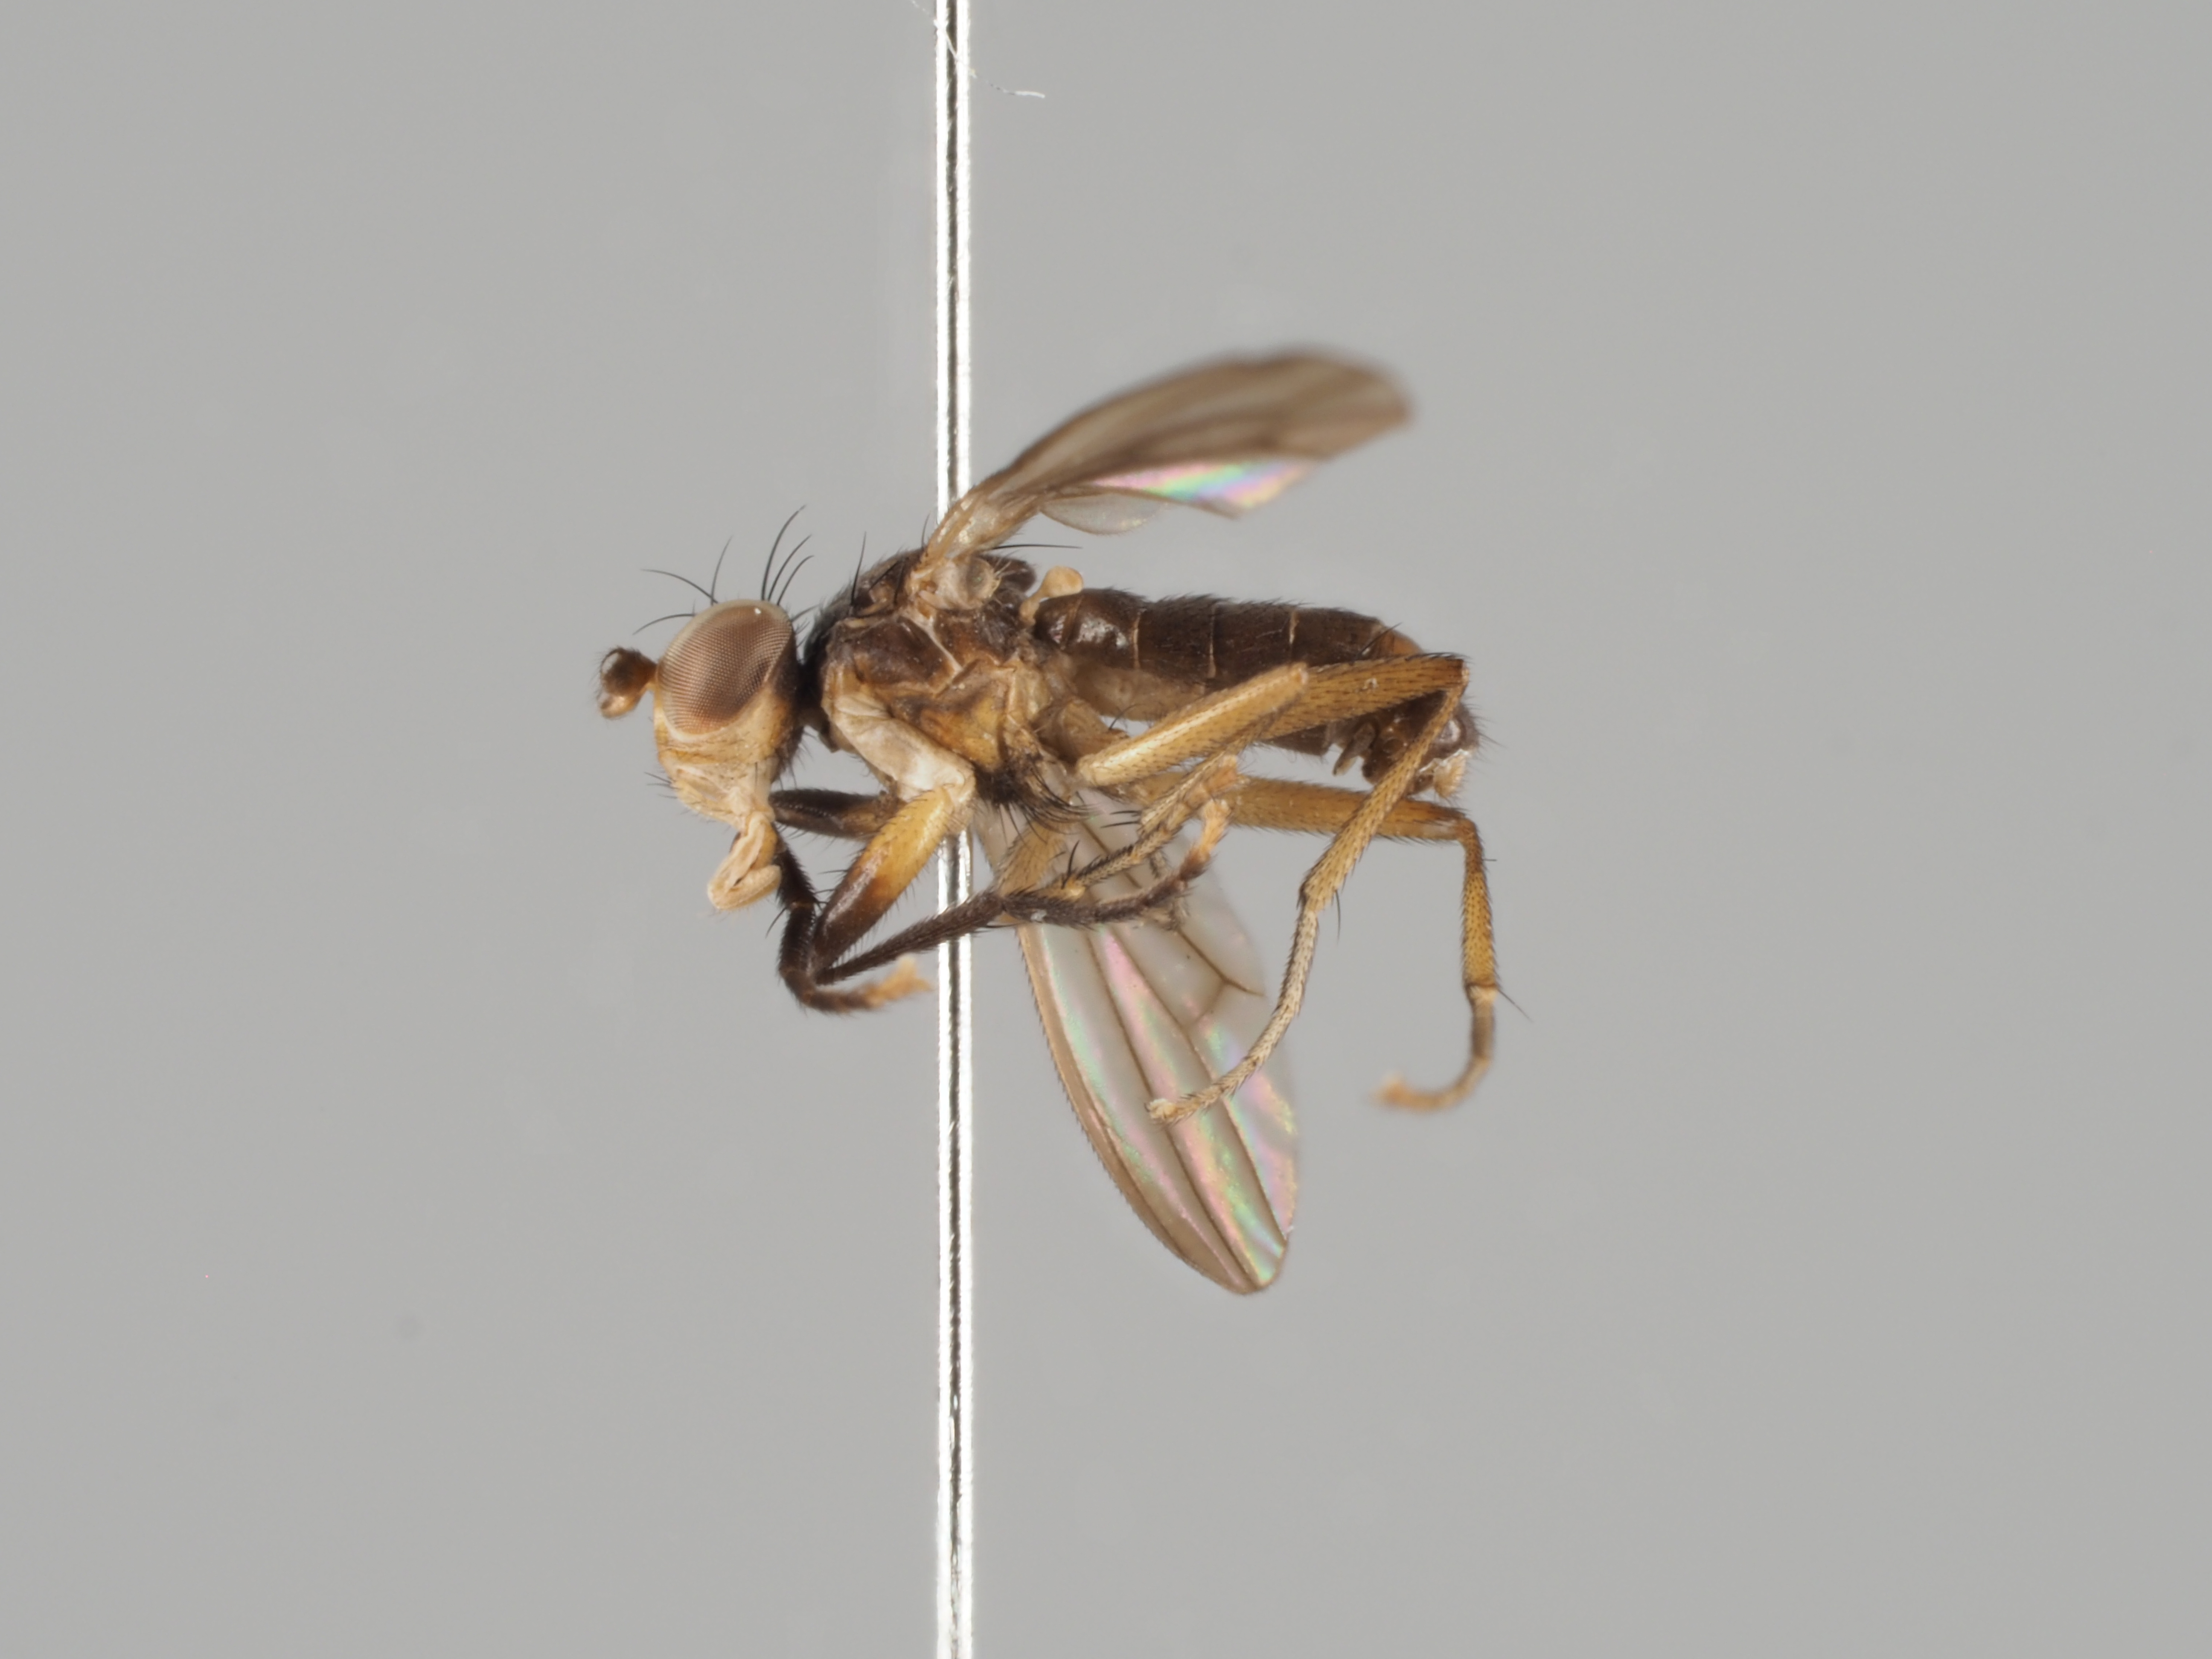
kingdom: Animalia
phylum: Arthropoda
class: Insecta
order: Diptera
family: Sciomyzidae
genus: Pteromicra
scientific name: Pteromicra leucopeza
